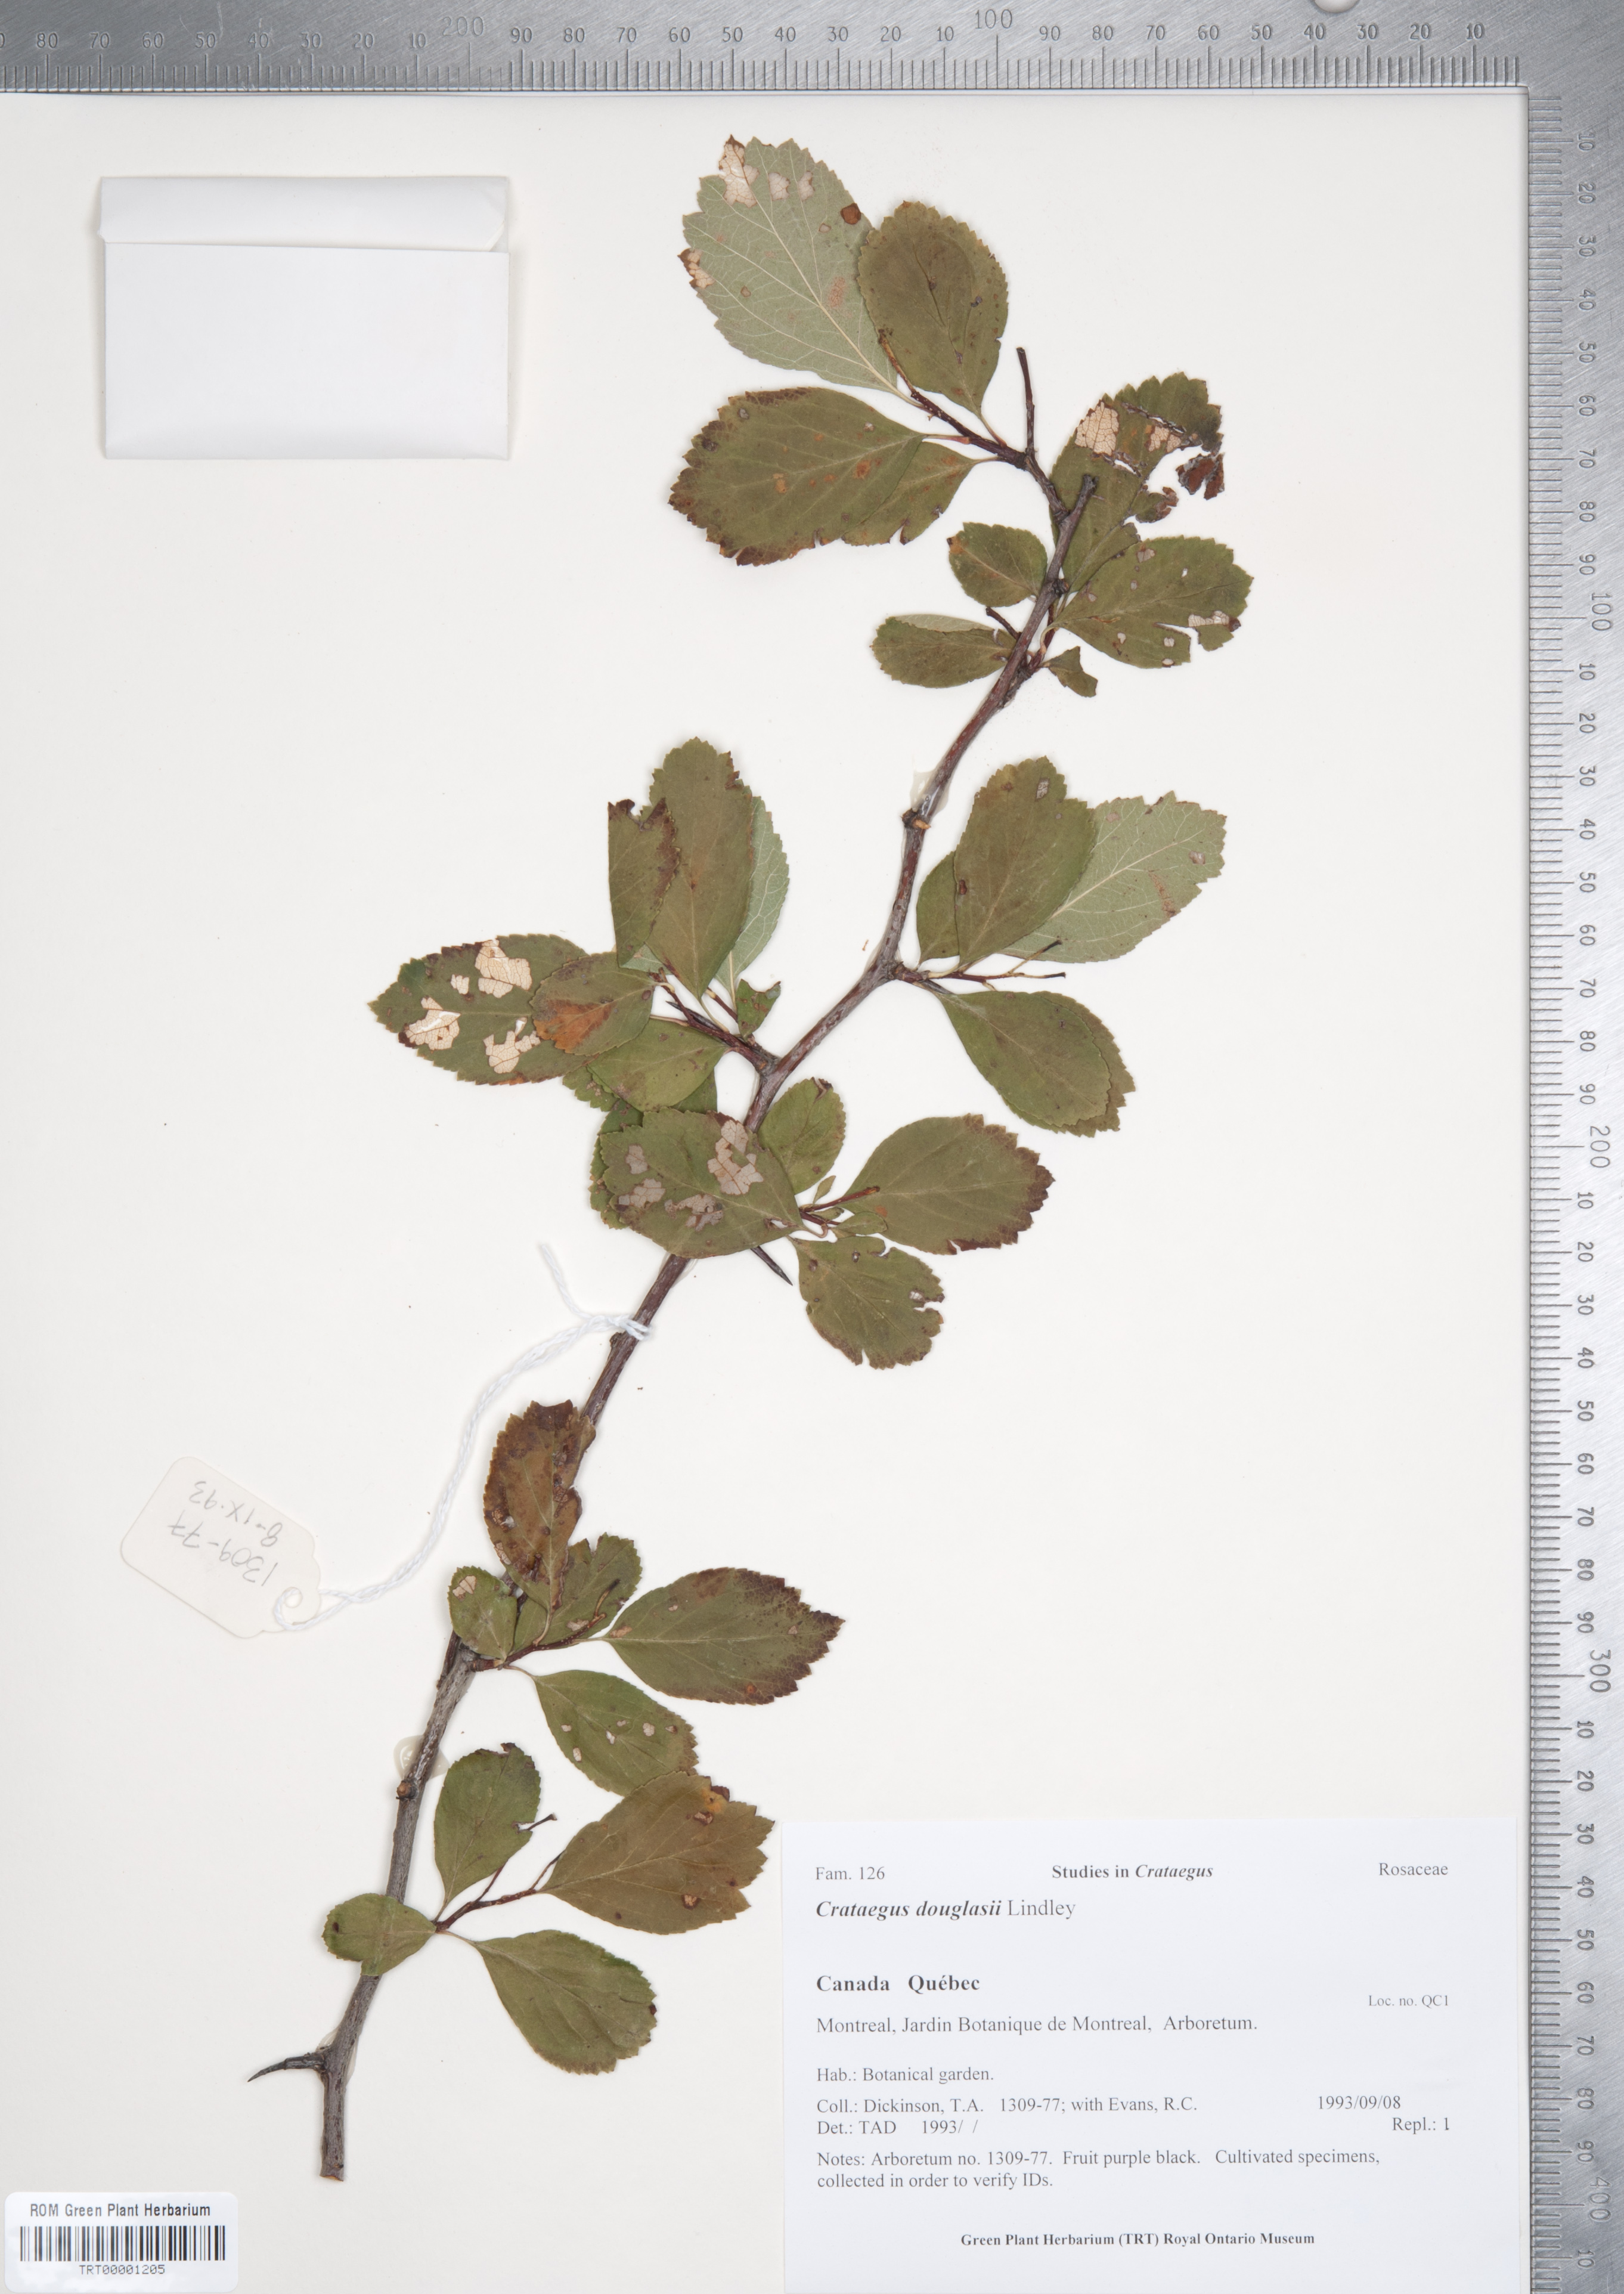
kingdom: Plantae
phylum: Tracheophyta
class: Magnoliopsida
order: Rosales
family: Rosaceae
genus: Crataegus
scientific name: Crataegus douglasii
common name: Black hawthorn
